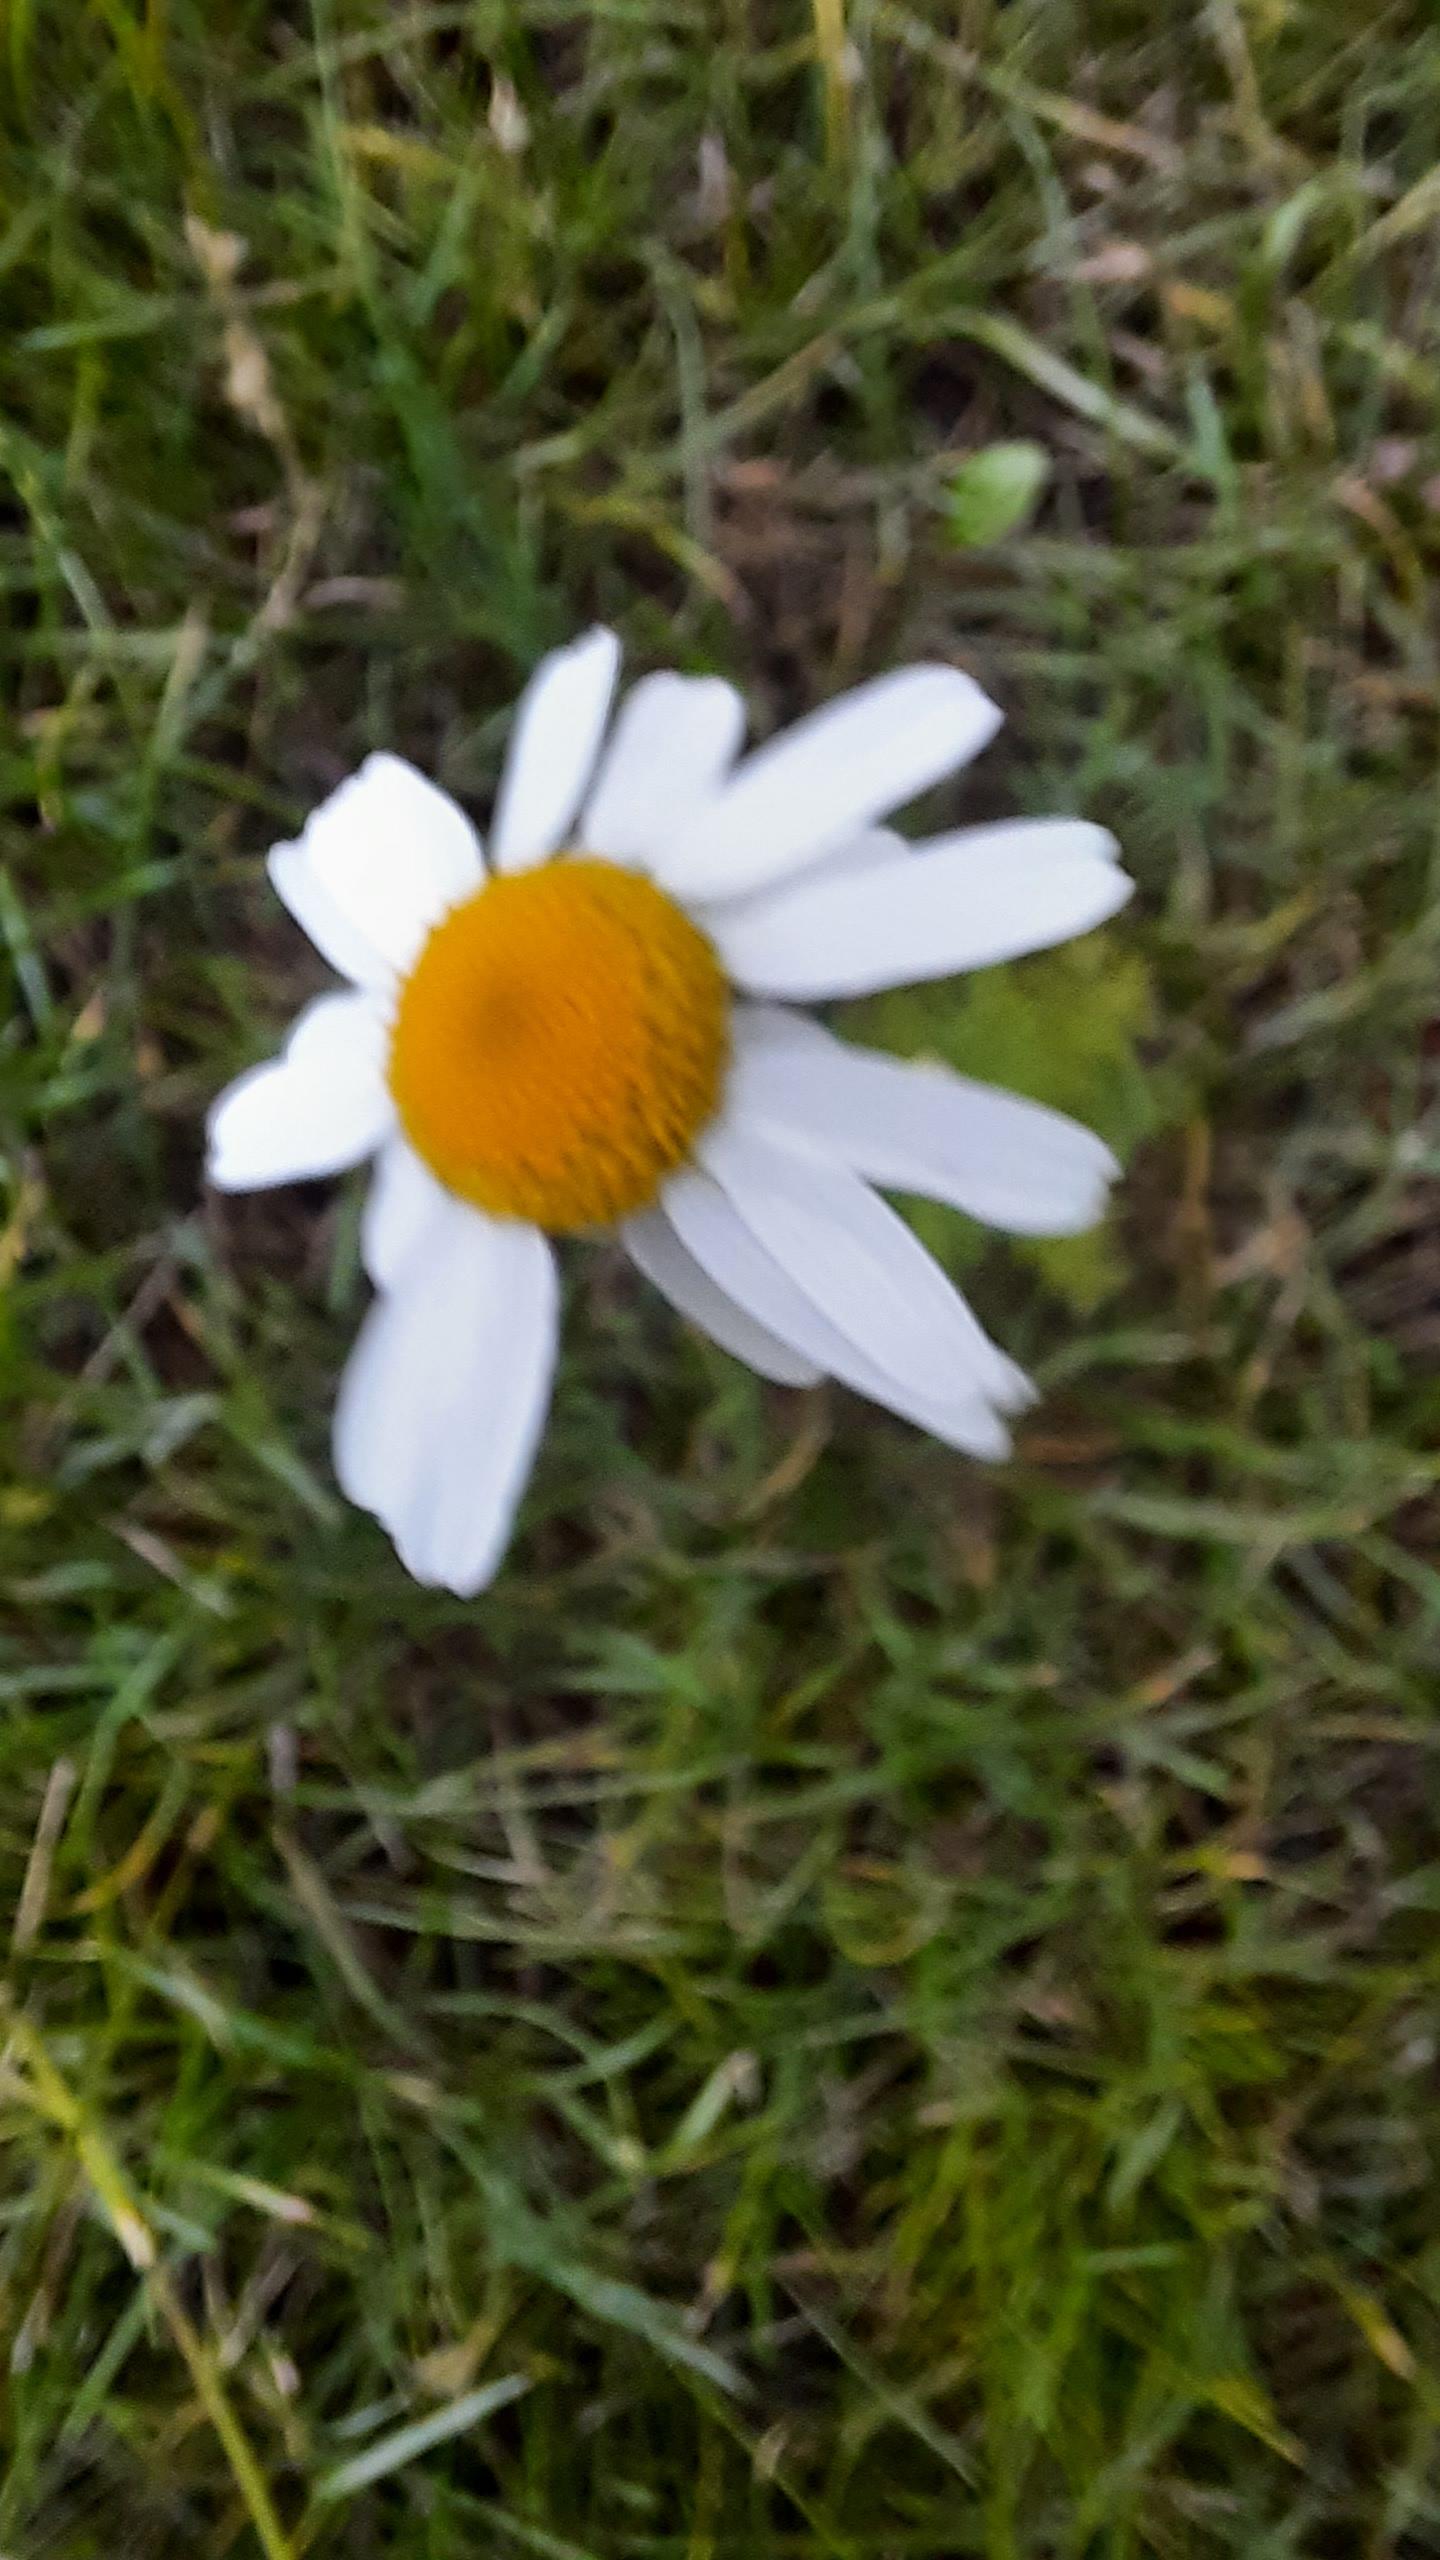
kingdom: Plantae
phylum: Tracheophyta
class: Magnoliopsida
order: Asterales
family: Asteraceae
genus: Tripleurospermum
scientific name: Tripleurospermum inodorum
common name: Lugtløs kamille
